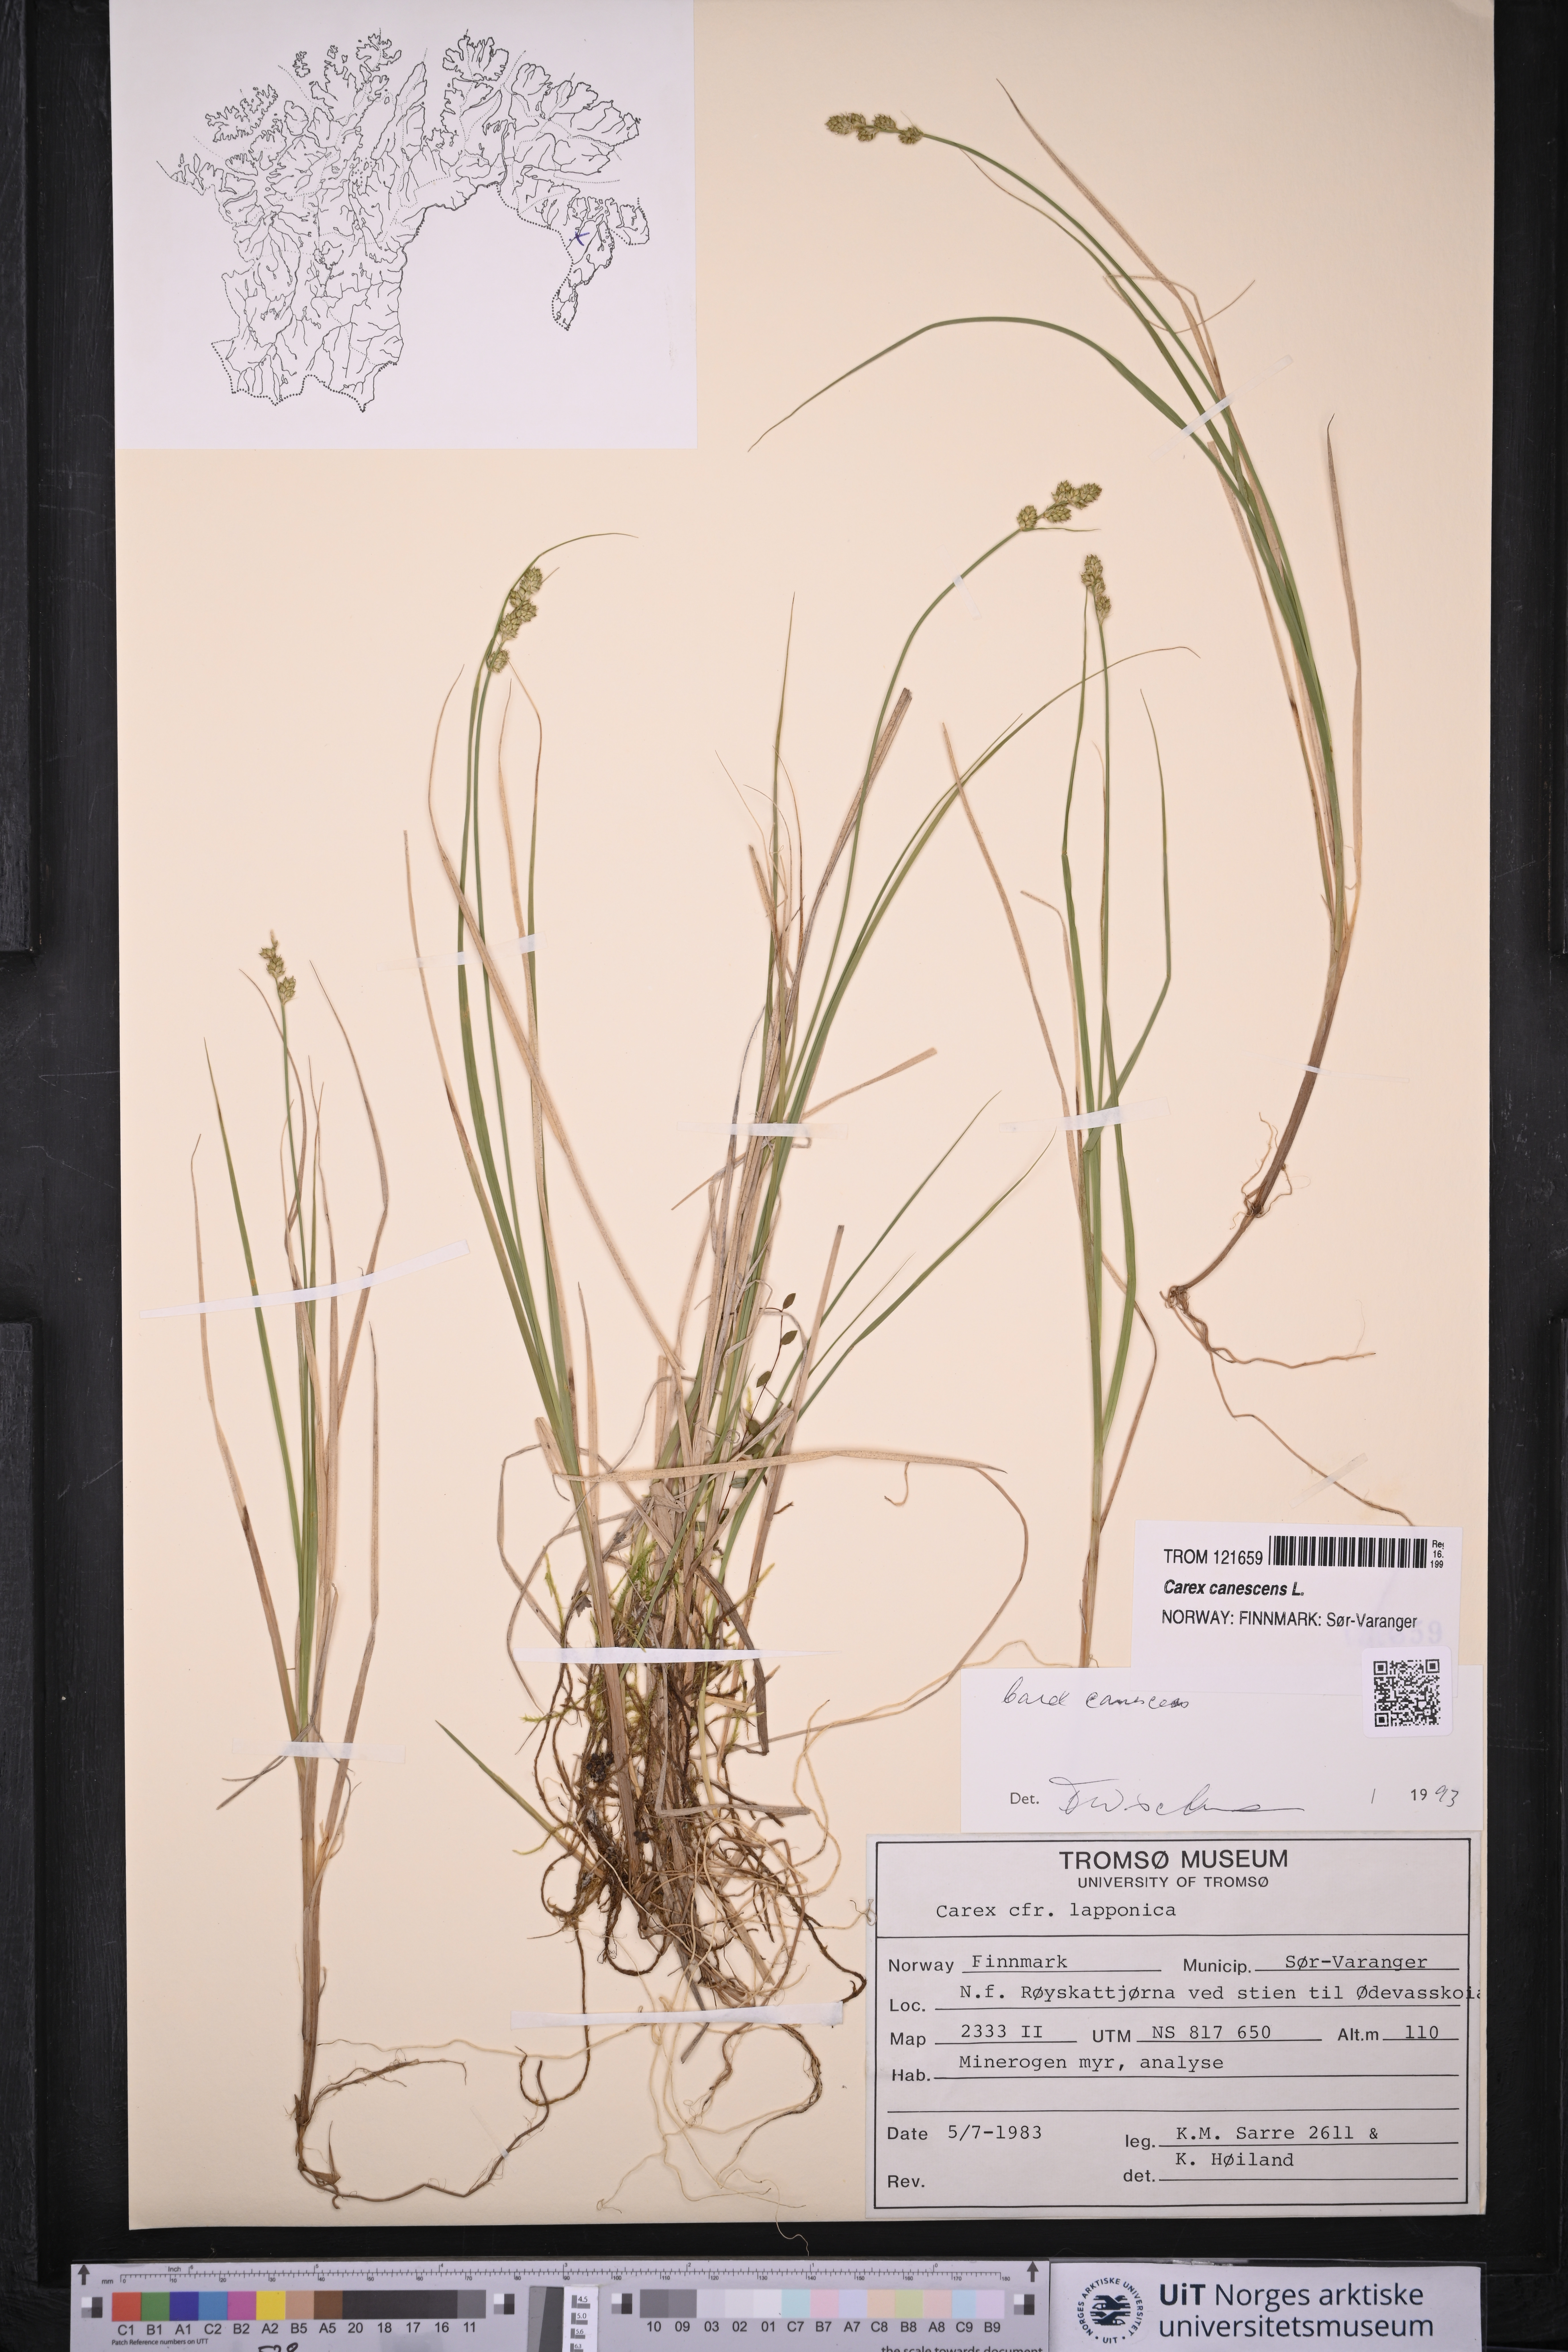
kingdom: Plantae
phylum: Tracheophyta
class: Liliopsida
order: Poales
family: Cyperaceae
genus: Carex
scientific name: Carex canescens
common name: White sedge
